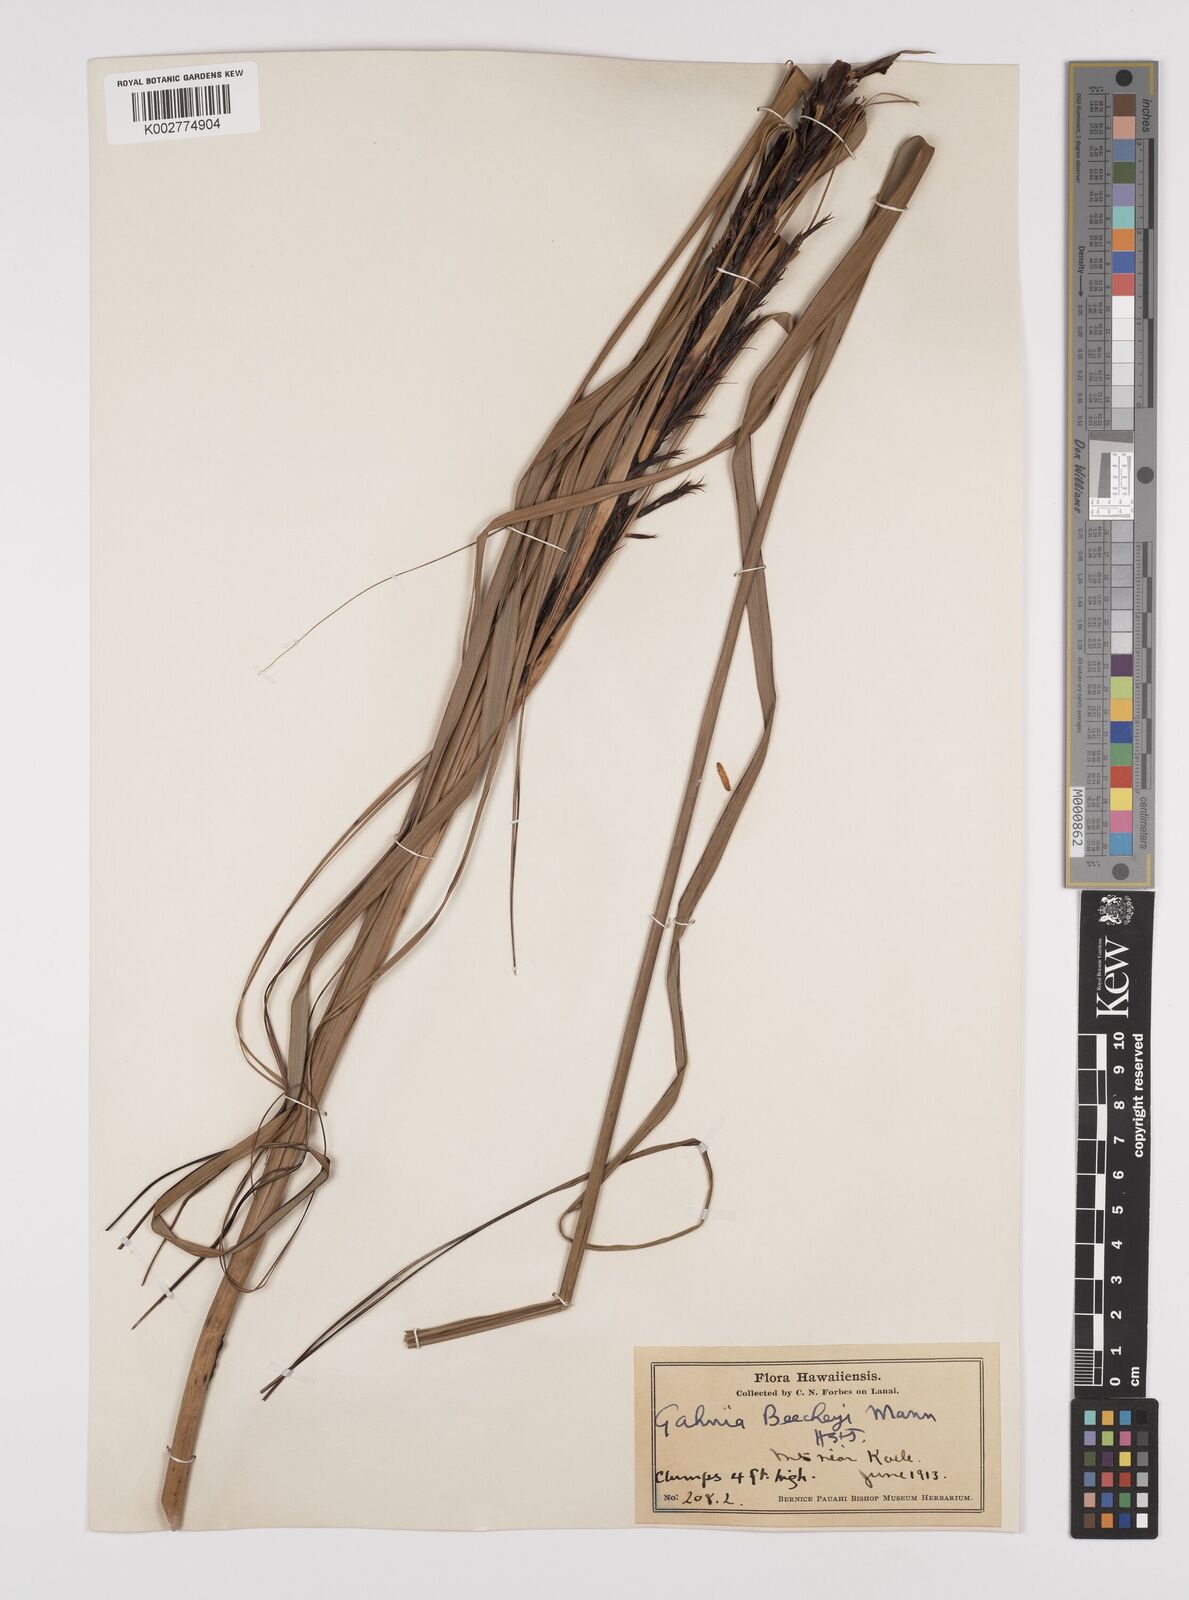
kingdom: Plantae
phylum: Tracheophyta
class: Liliopsida
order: Poales
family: Cyperaceae
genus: Gahnia
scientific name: Gahnia beecheyi
